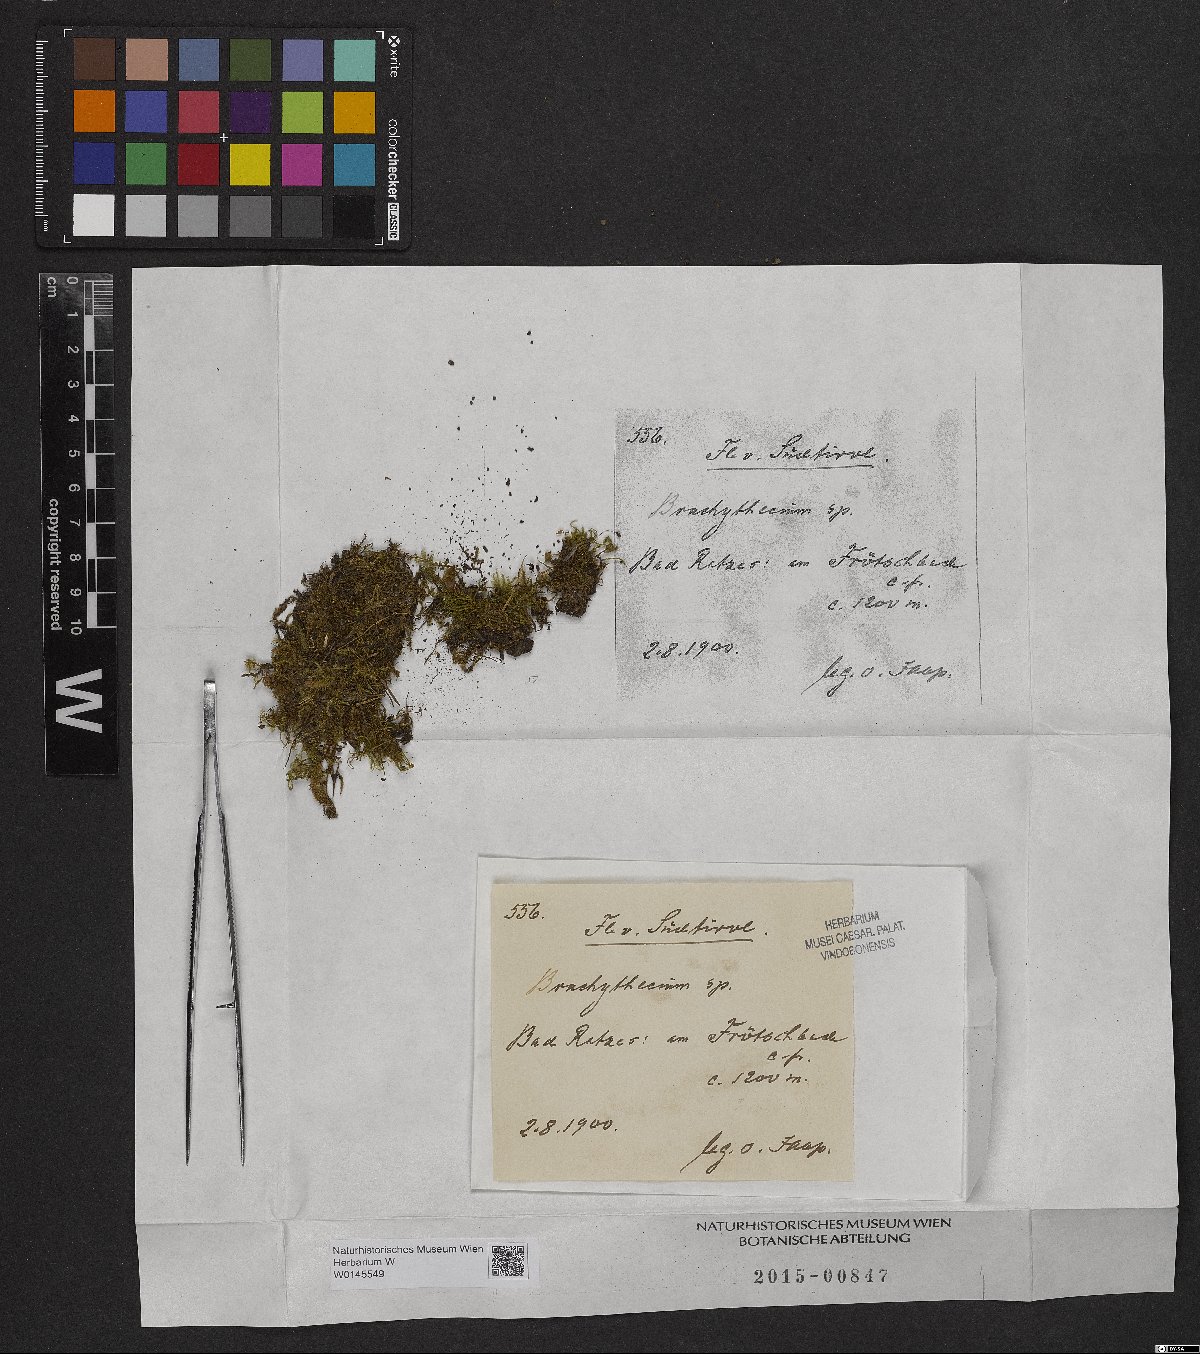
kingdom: Plantae
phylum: Bryophyta
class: Bryopsida
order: Hypnales
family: Brachytheciaceae
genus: Brachythecium
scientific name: Brachythecium
